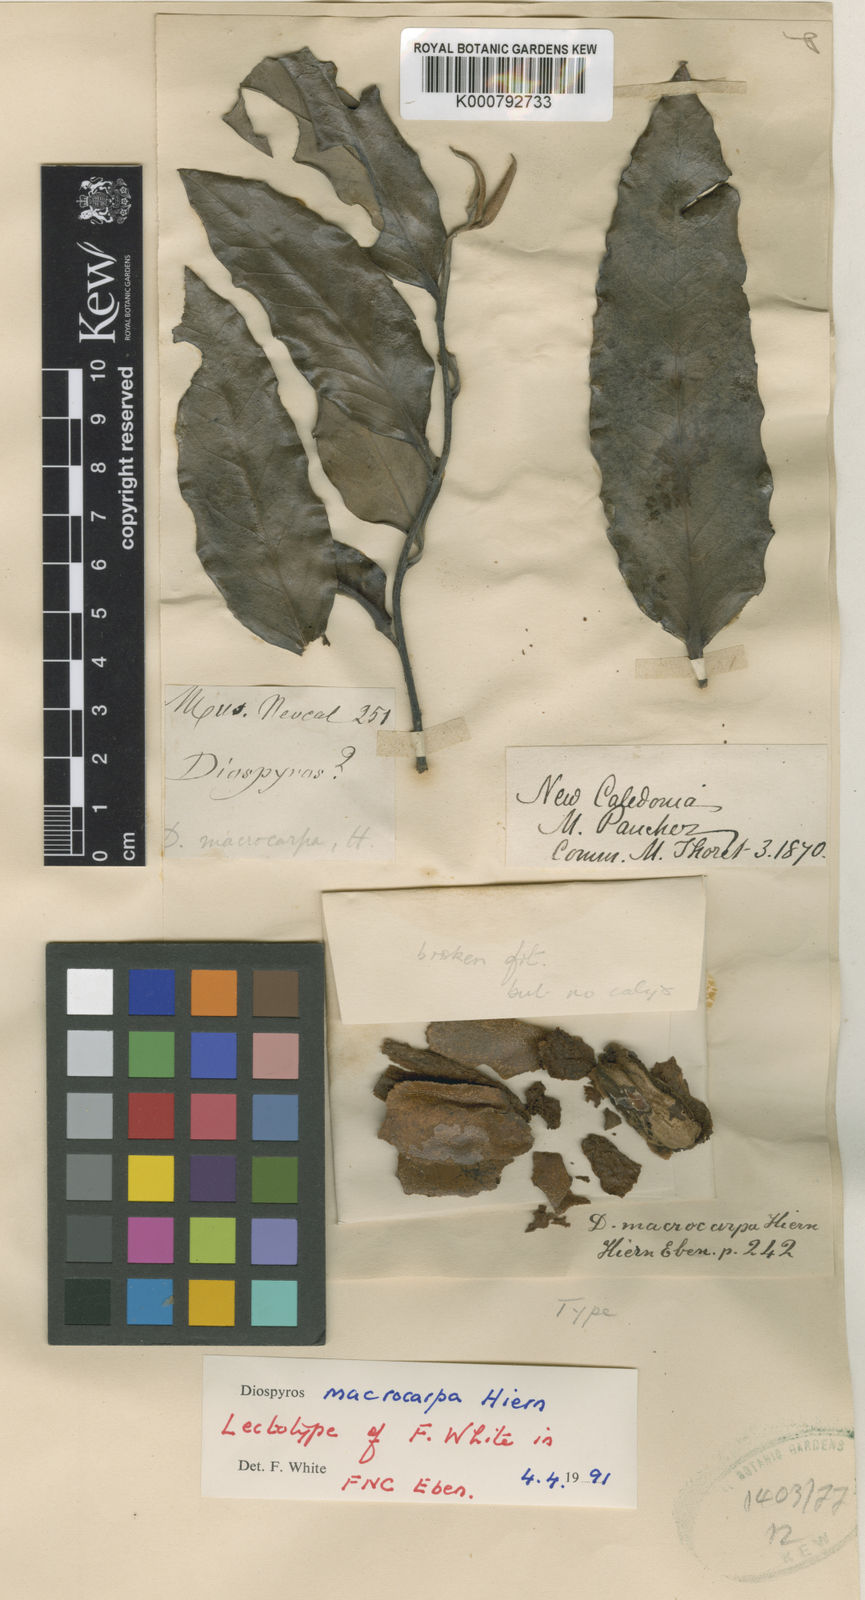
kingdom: Plantae
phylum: Tracheophyta
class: Magnoliopsida
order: Ericales
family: Ebenaceae
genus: Diospyros
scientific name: Diospyros macrocarpa
